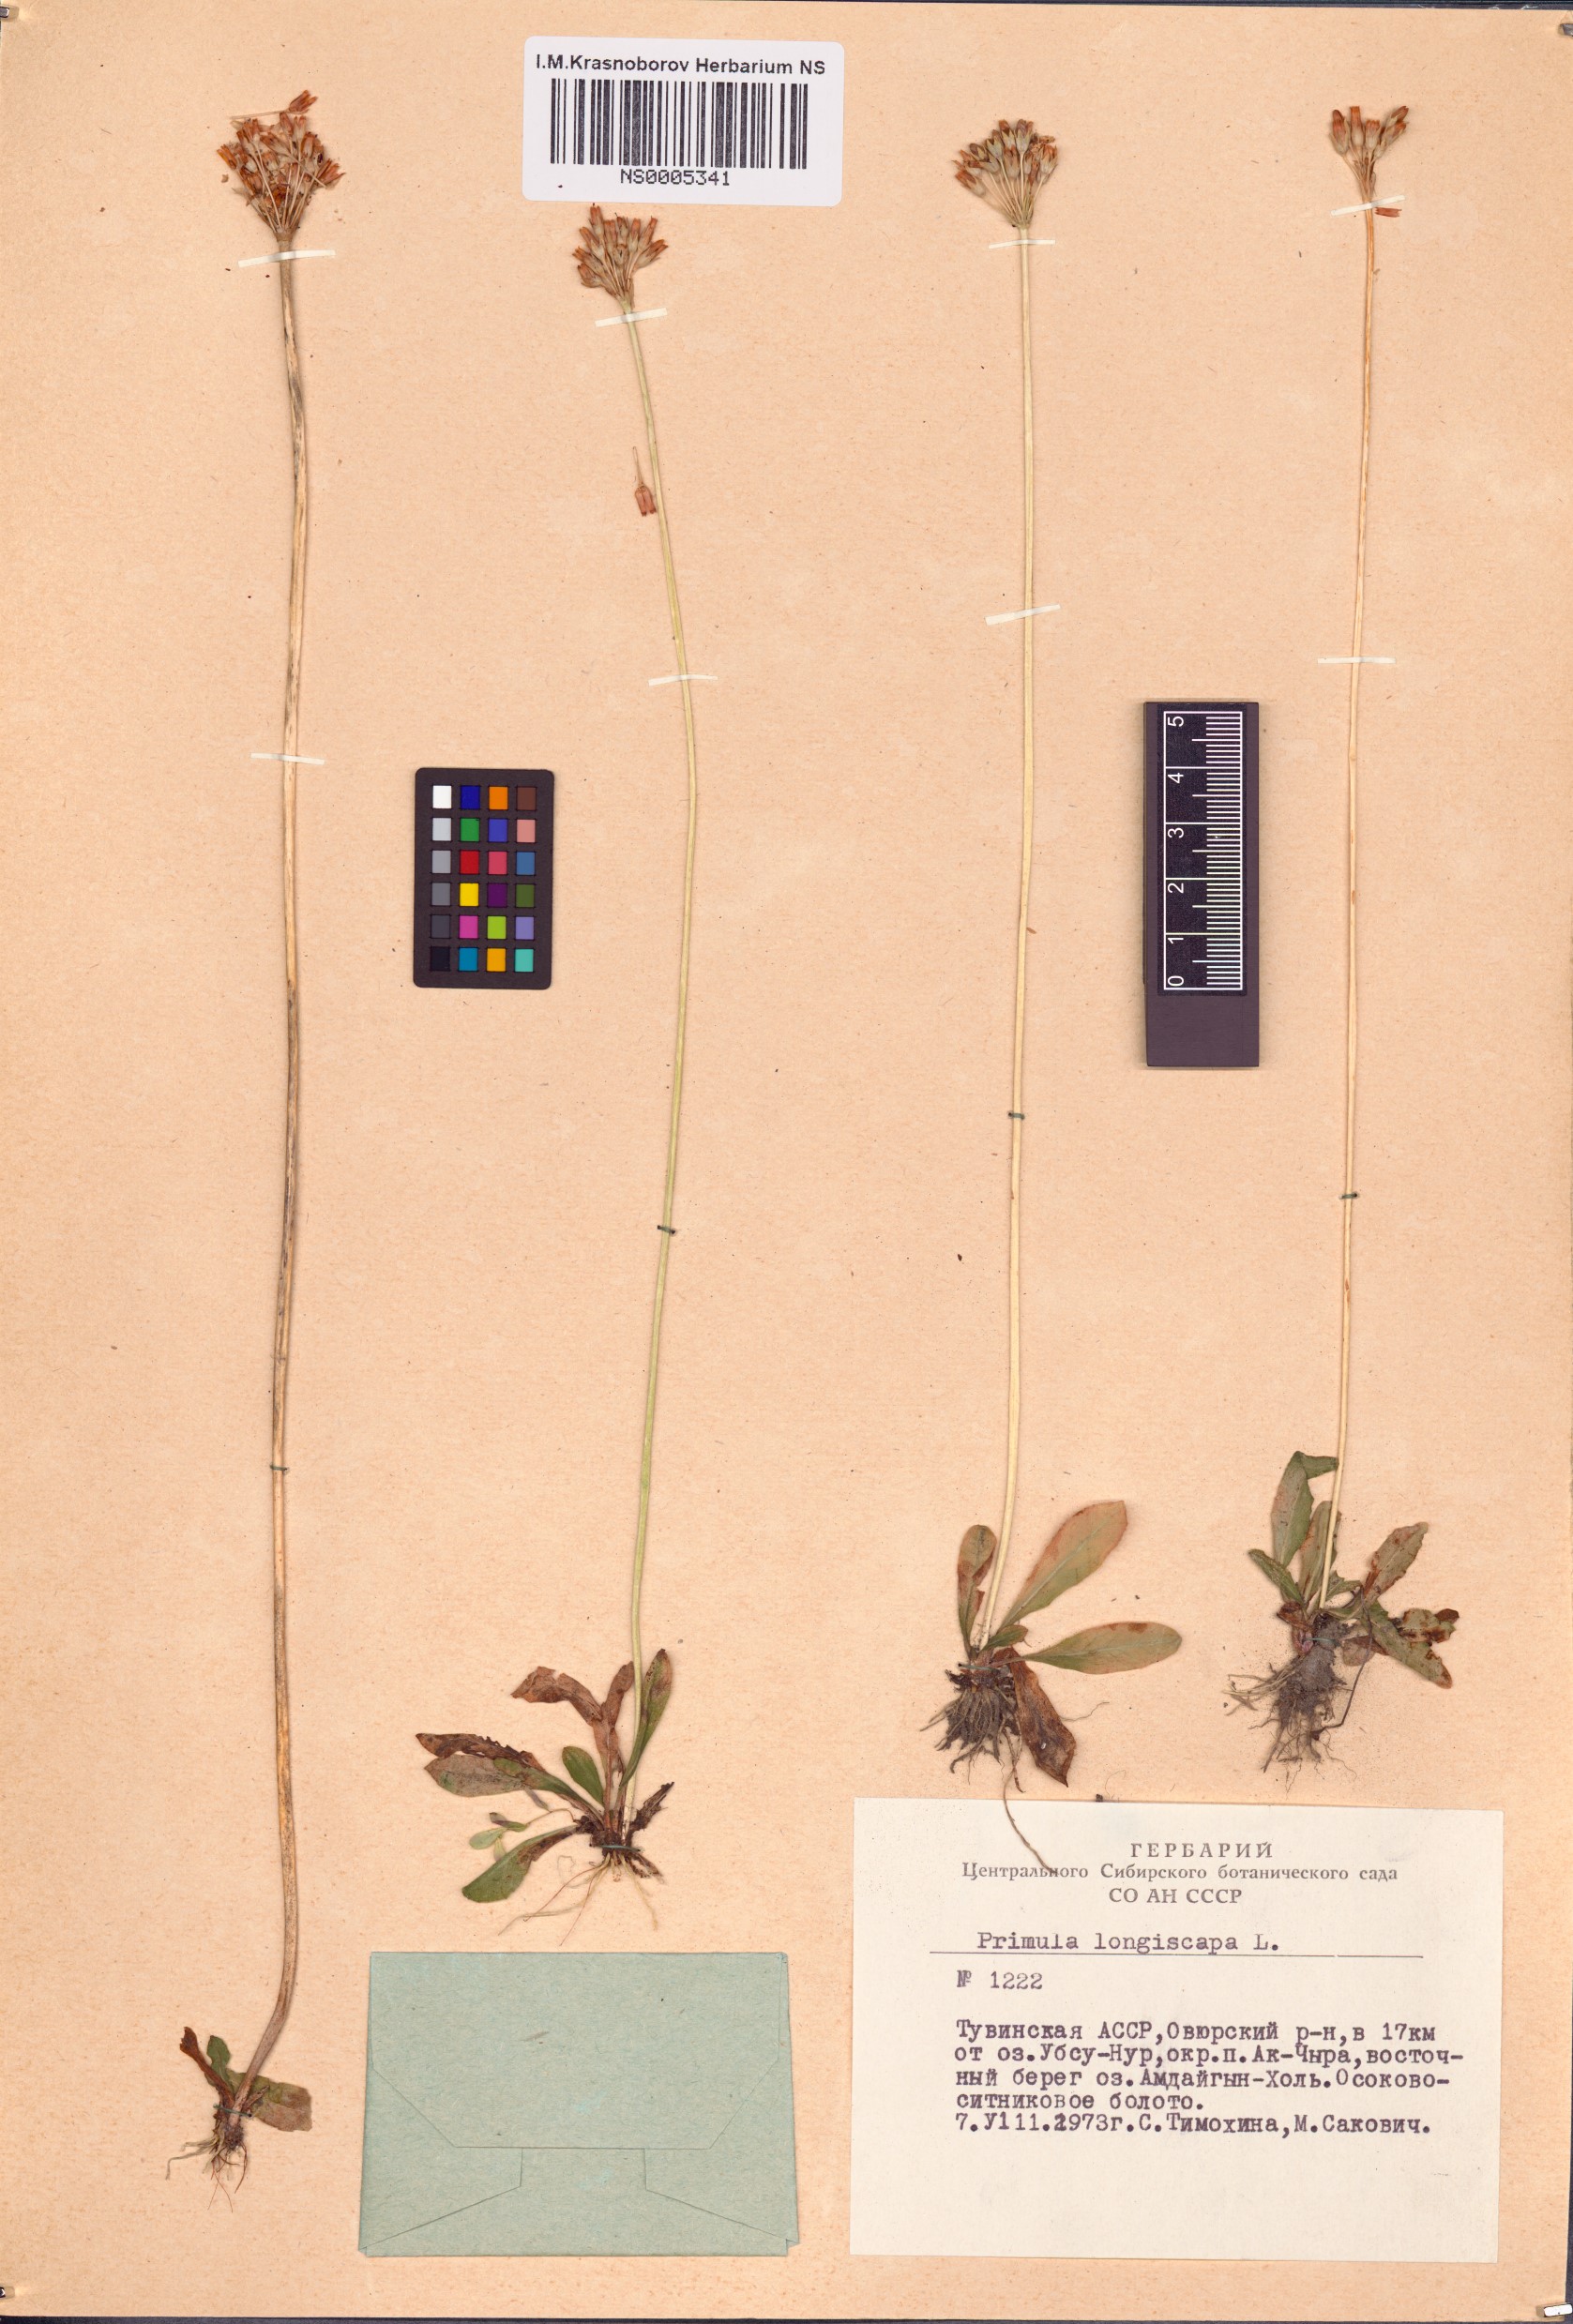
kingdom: Plantae
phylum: Tracheophyta
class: Magnoliopsida
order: Ericales
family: Primulaceae
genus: Primula
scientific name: Primula longiscapa
